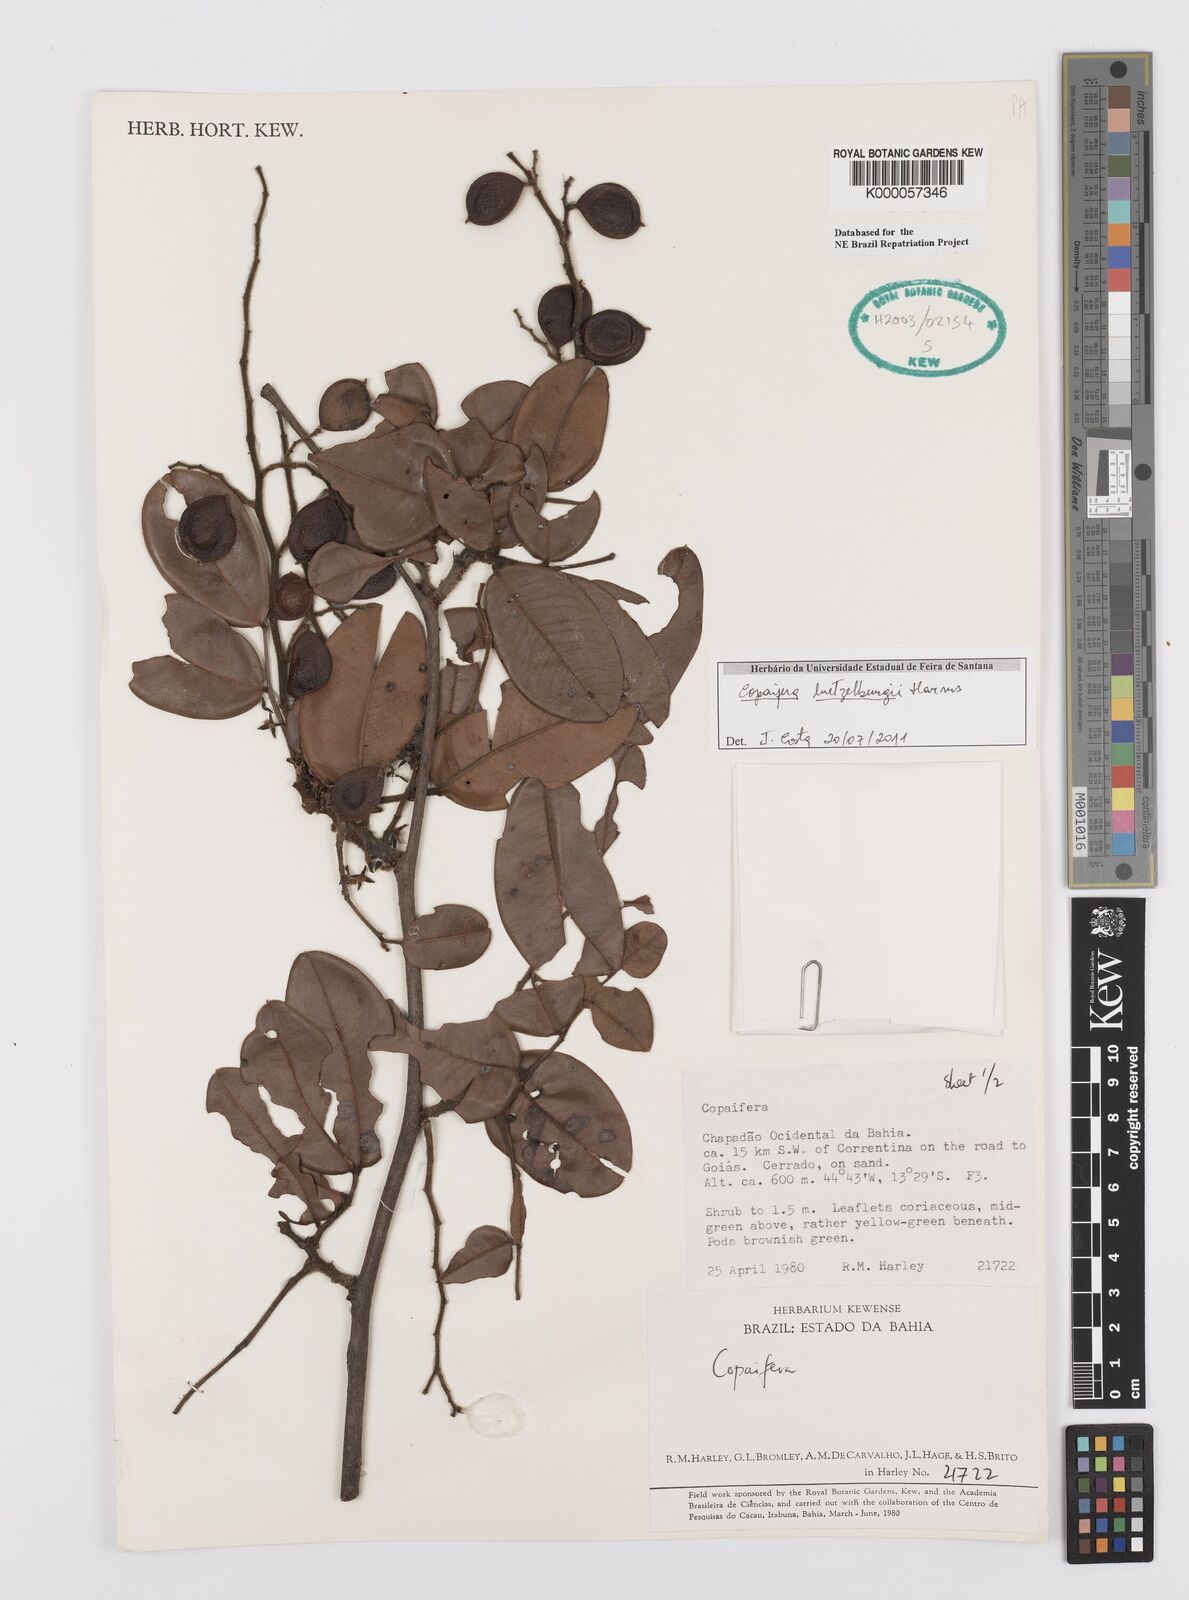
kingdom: Plantae
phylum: Tracheophyta
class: Magnoliopsida
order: Fabales
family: Fabaceae
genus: Copaifera
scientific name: Copaifera luetzelburgii
